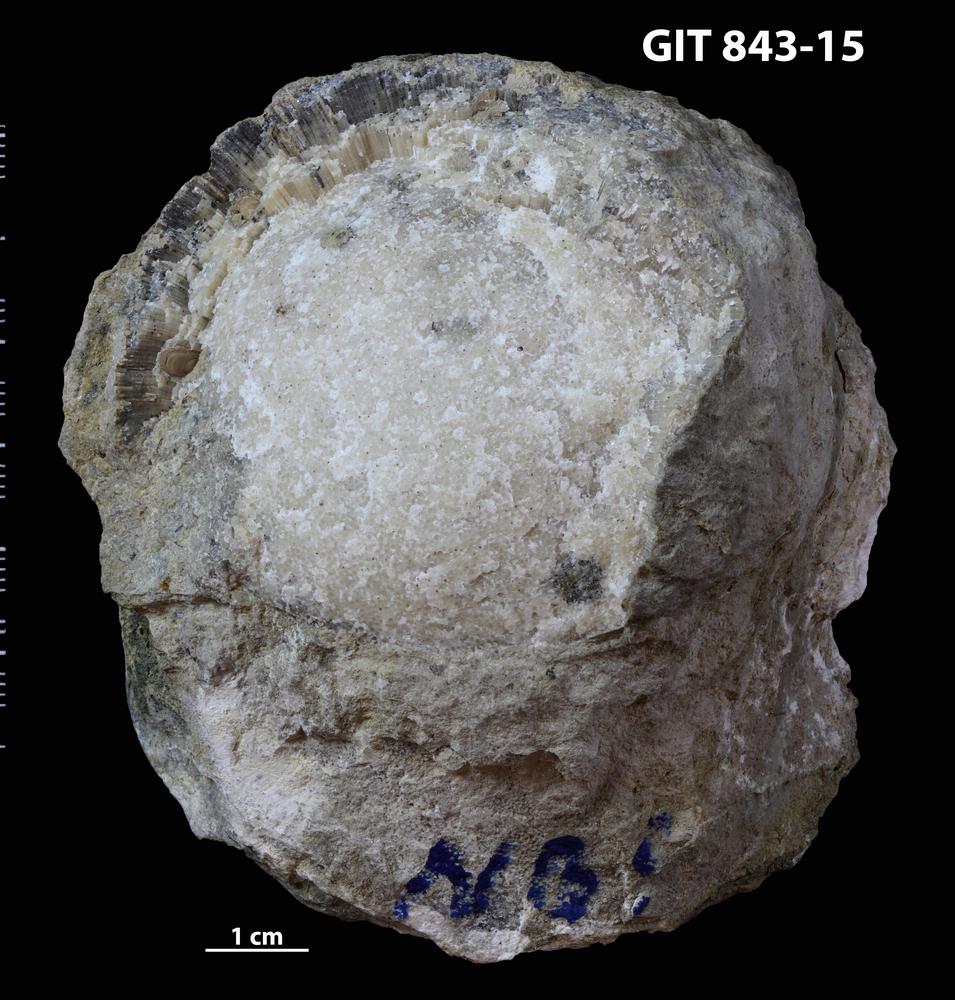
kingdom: Animalia
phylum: Bryozoa
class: Stenolaemata
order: Trepostomatida
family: Diplotrypidae
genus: Diplotrypa
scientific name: Diplotrypa densitabulata
